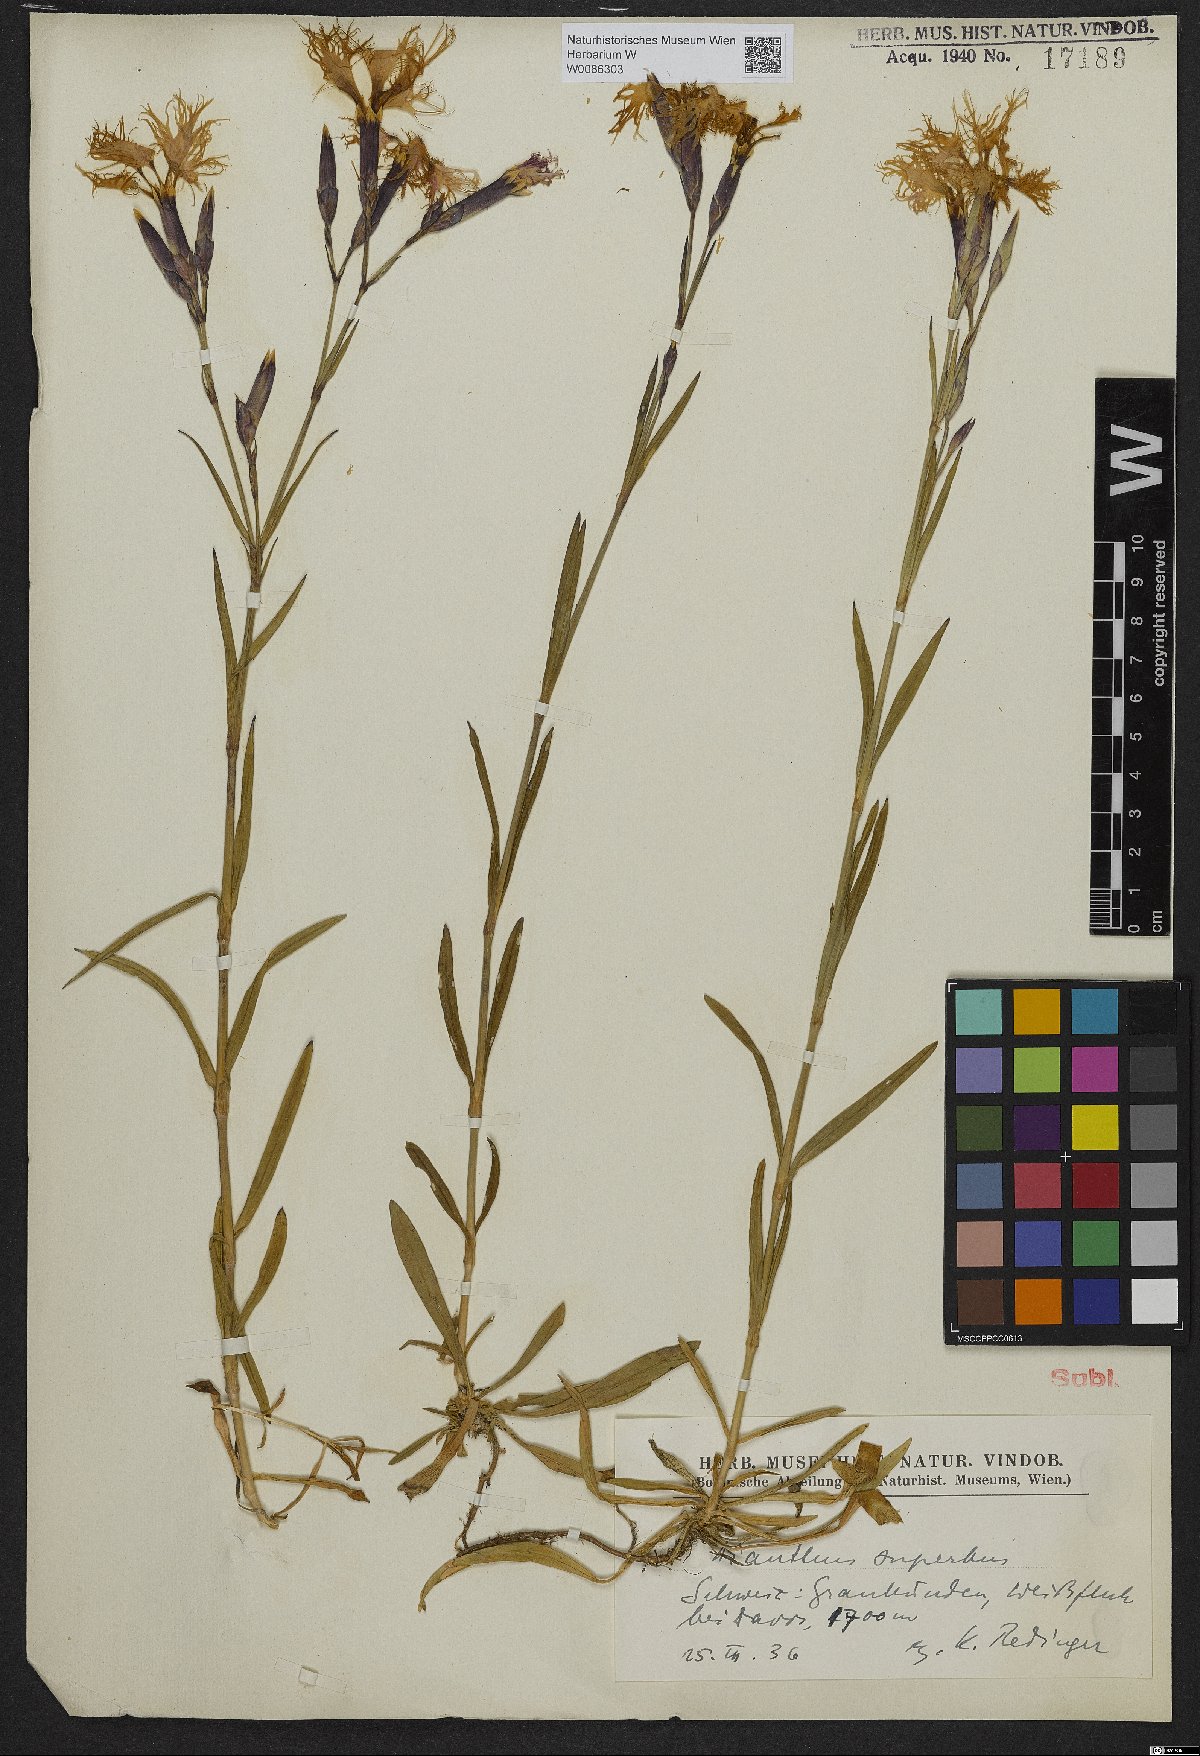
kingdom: Plantae
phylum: Tracheophyta
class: Magnoliopsida
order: Caryophyllales
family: Caryophyllaceae
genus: Dianthus
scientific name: Dianthus superbus
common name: Fringed pink
